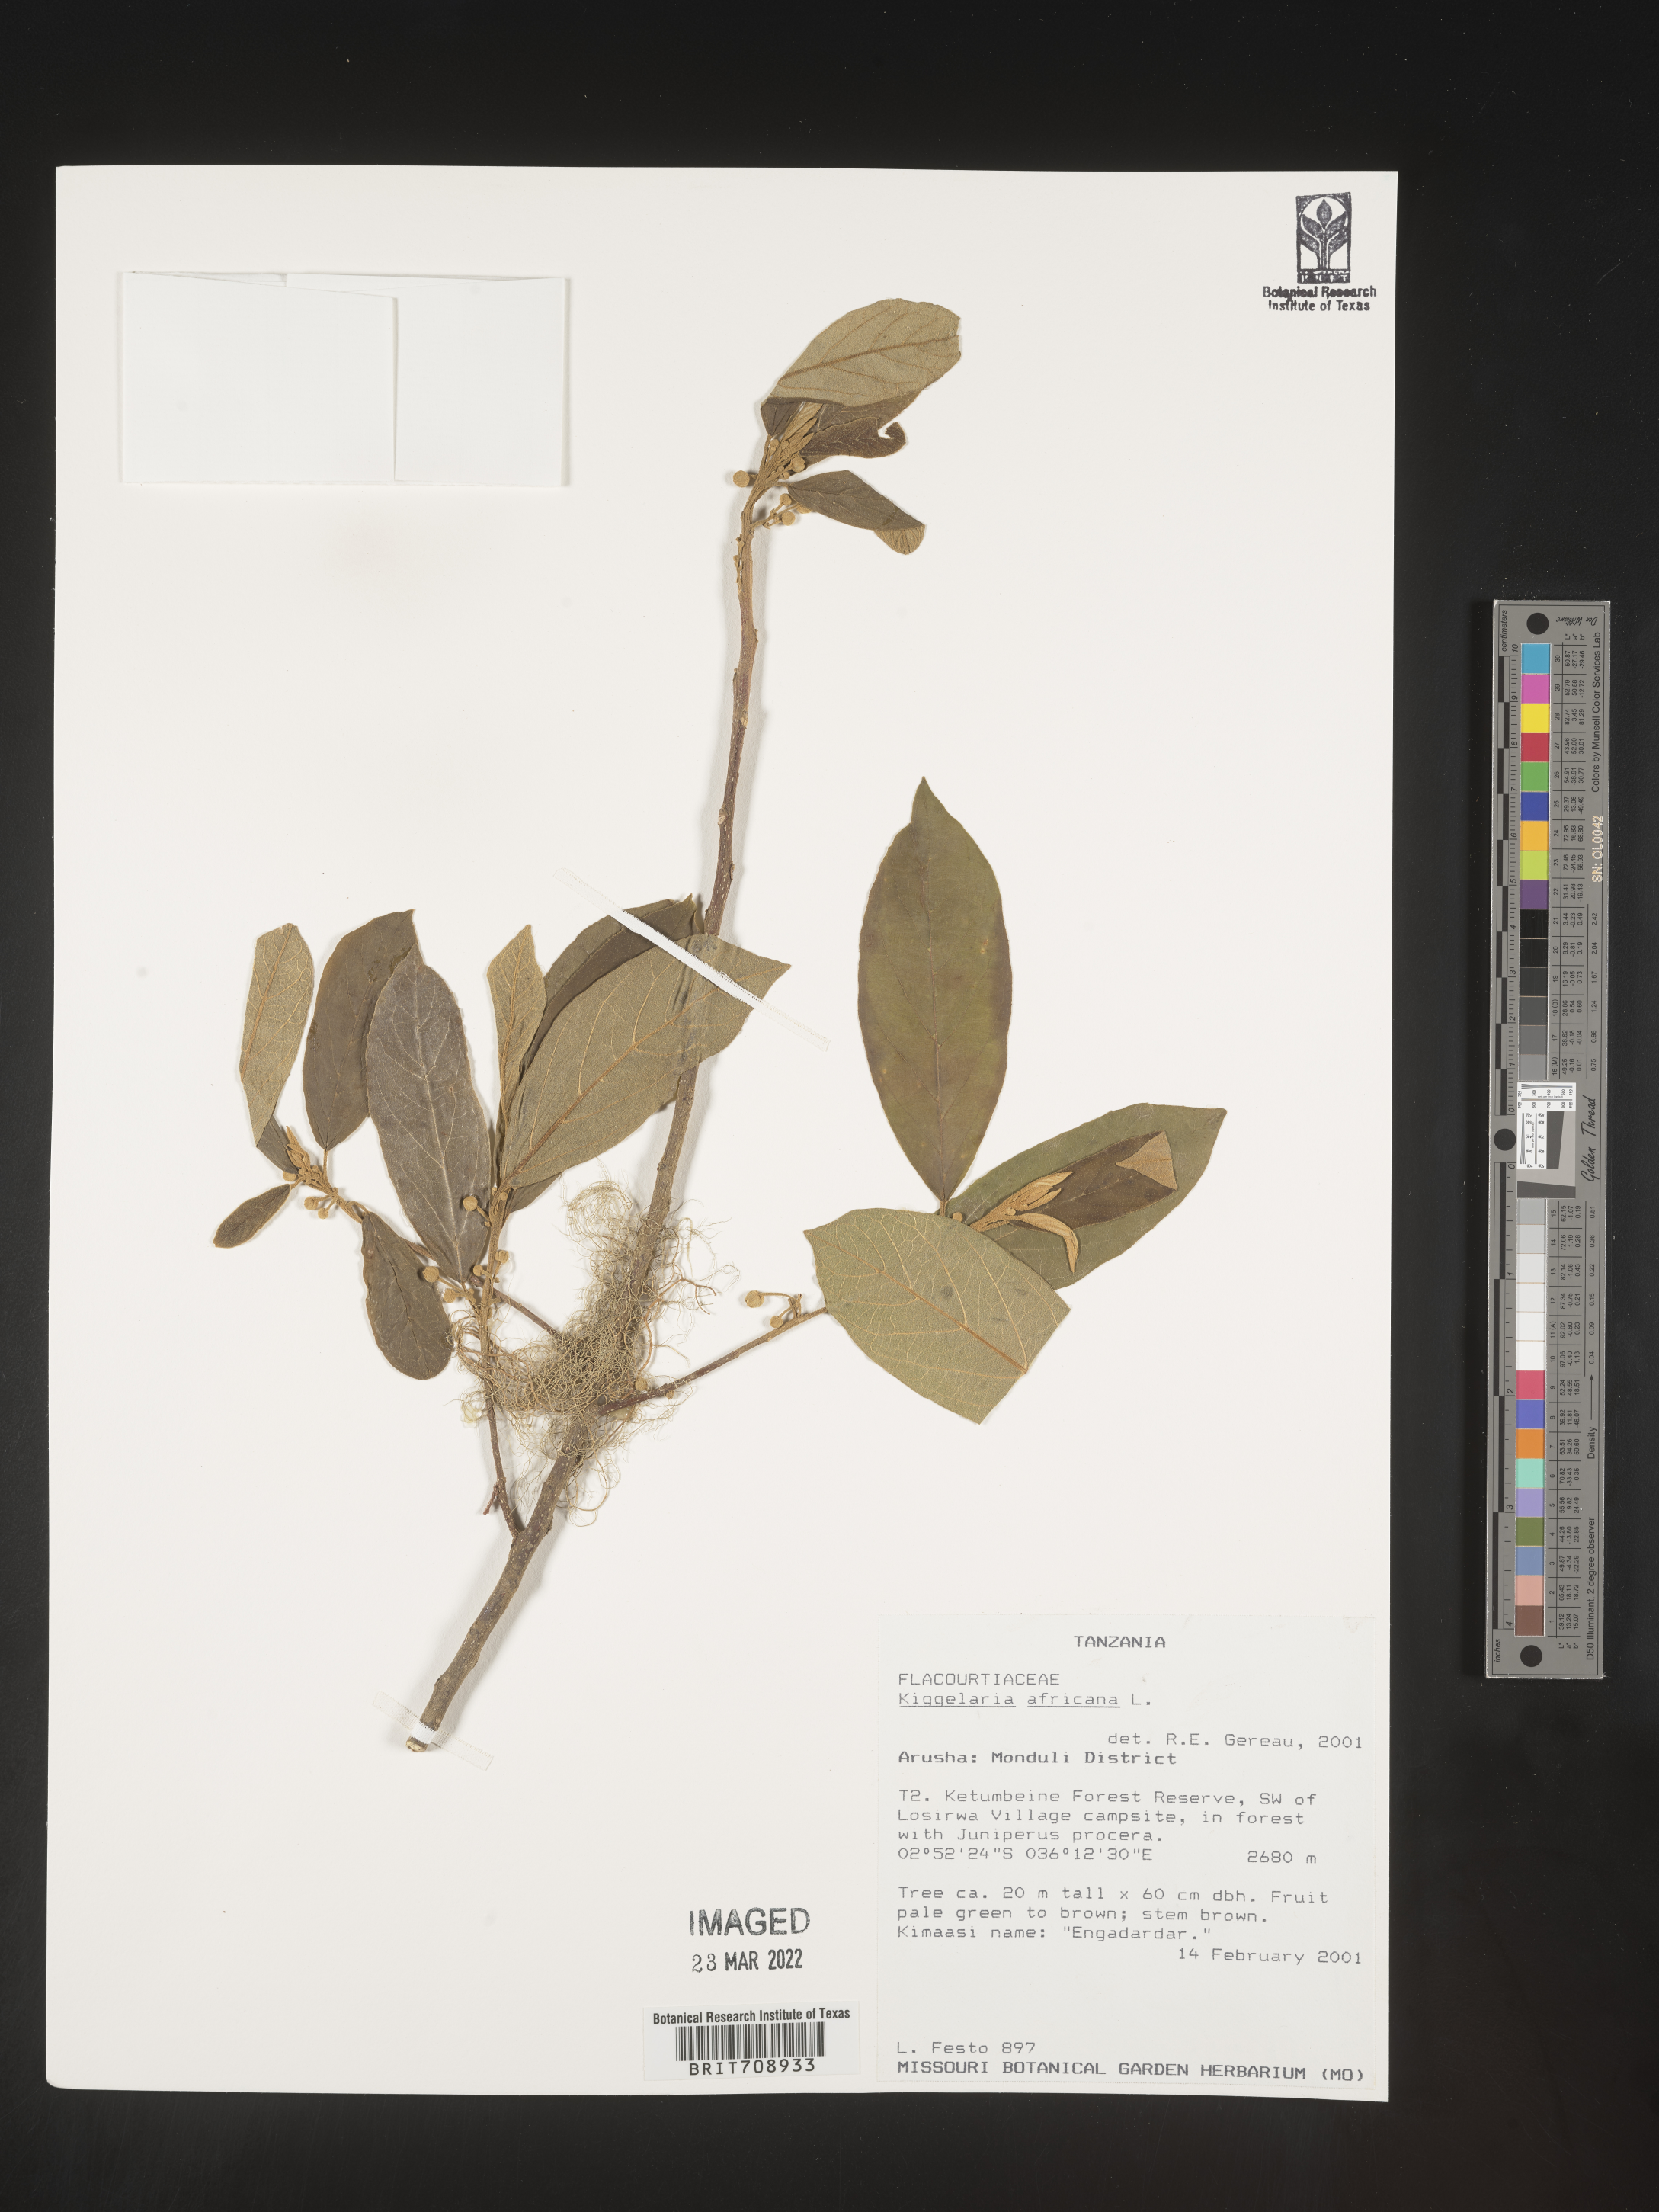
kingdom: Plantae
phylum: Tracheophyta
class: Magnoliopsida
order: Malpighiales
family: Achariaceae
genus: Kiggelaria
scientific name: Kiggelaria
